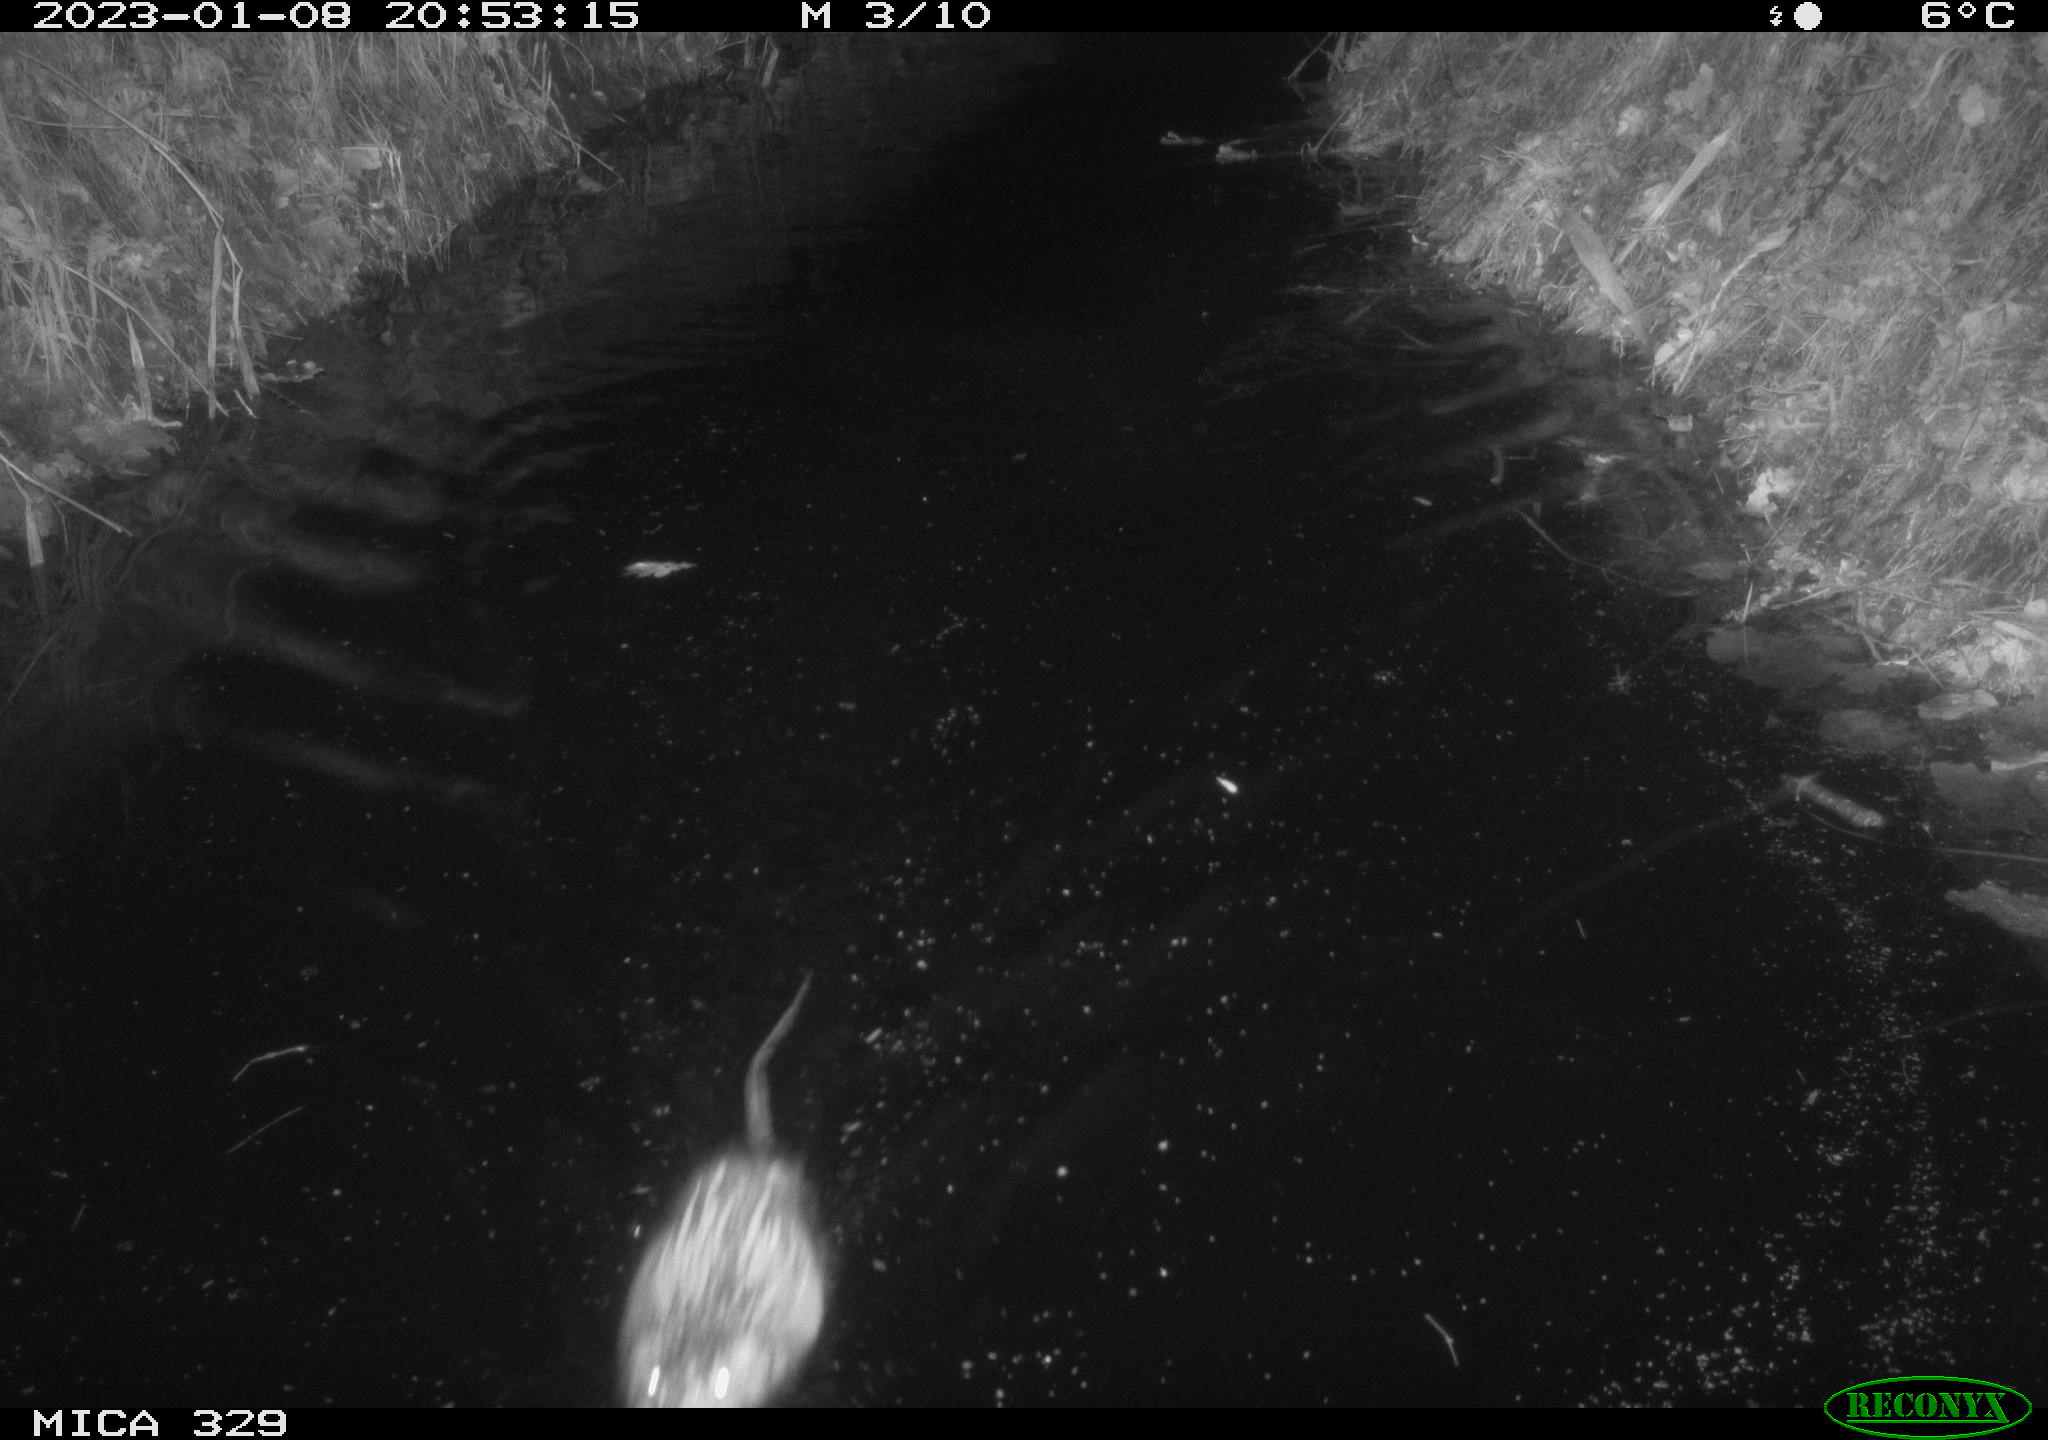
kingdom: Animalia
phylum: Chordata
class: Mammalia
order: Rodentia
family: Cricetidae
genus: Ondatra
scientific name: Ondatra zibethicus
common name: Muskrat
